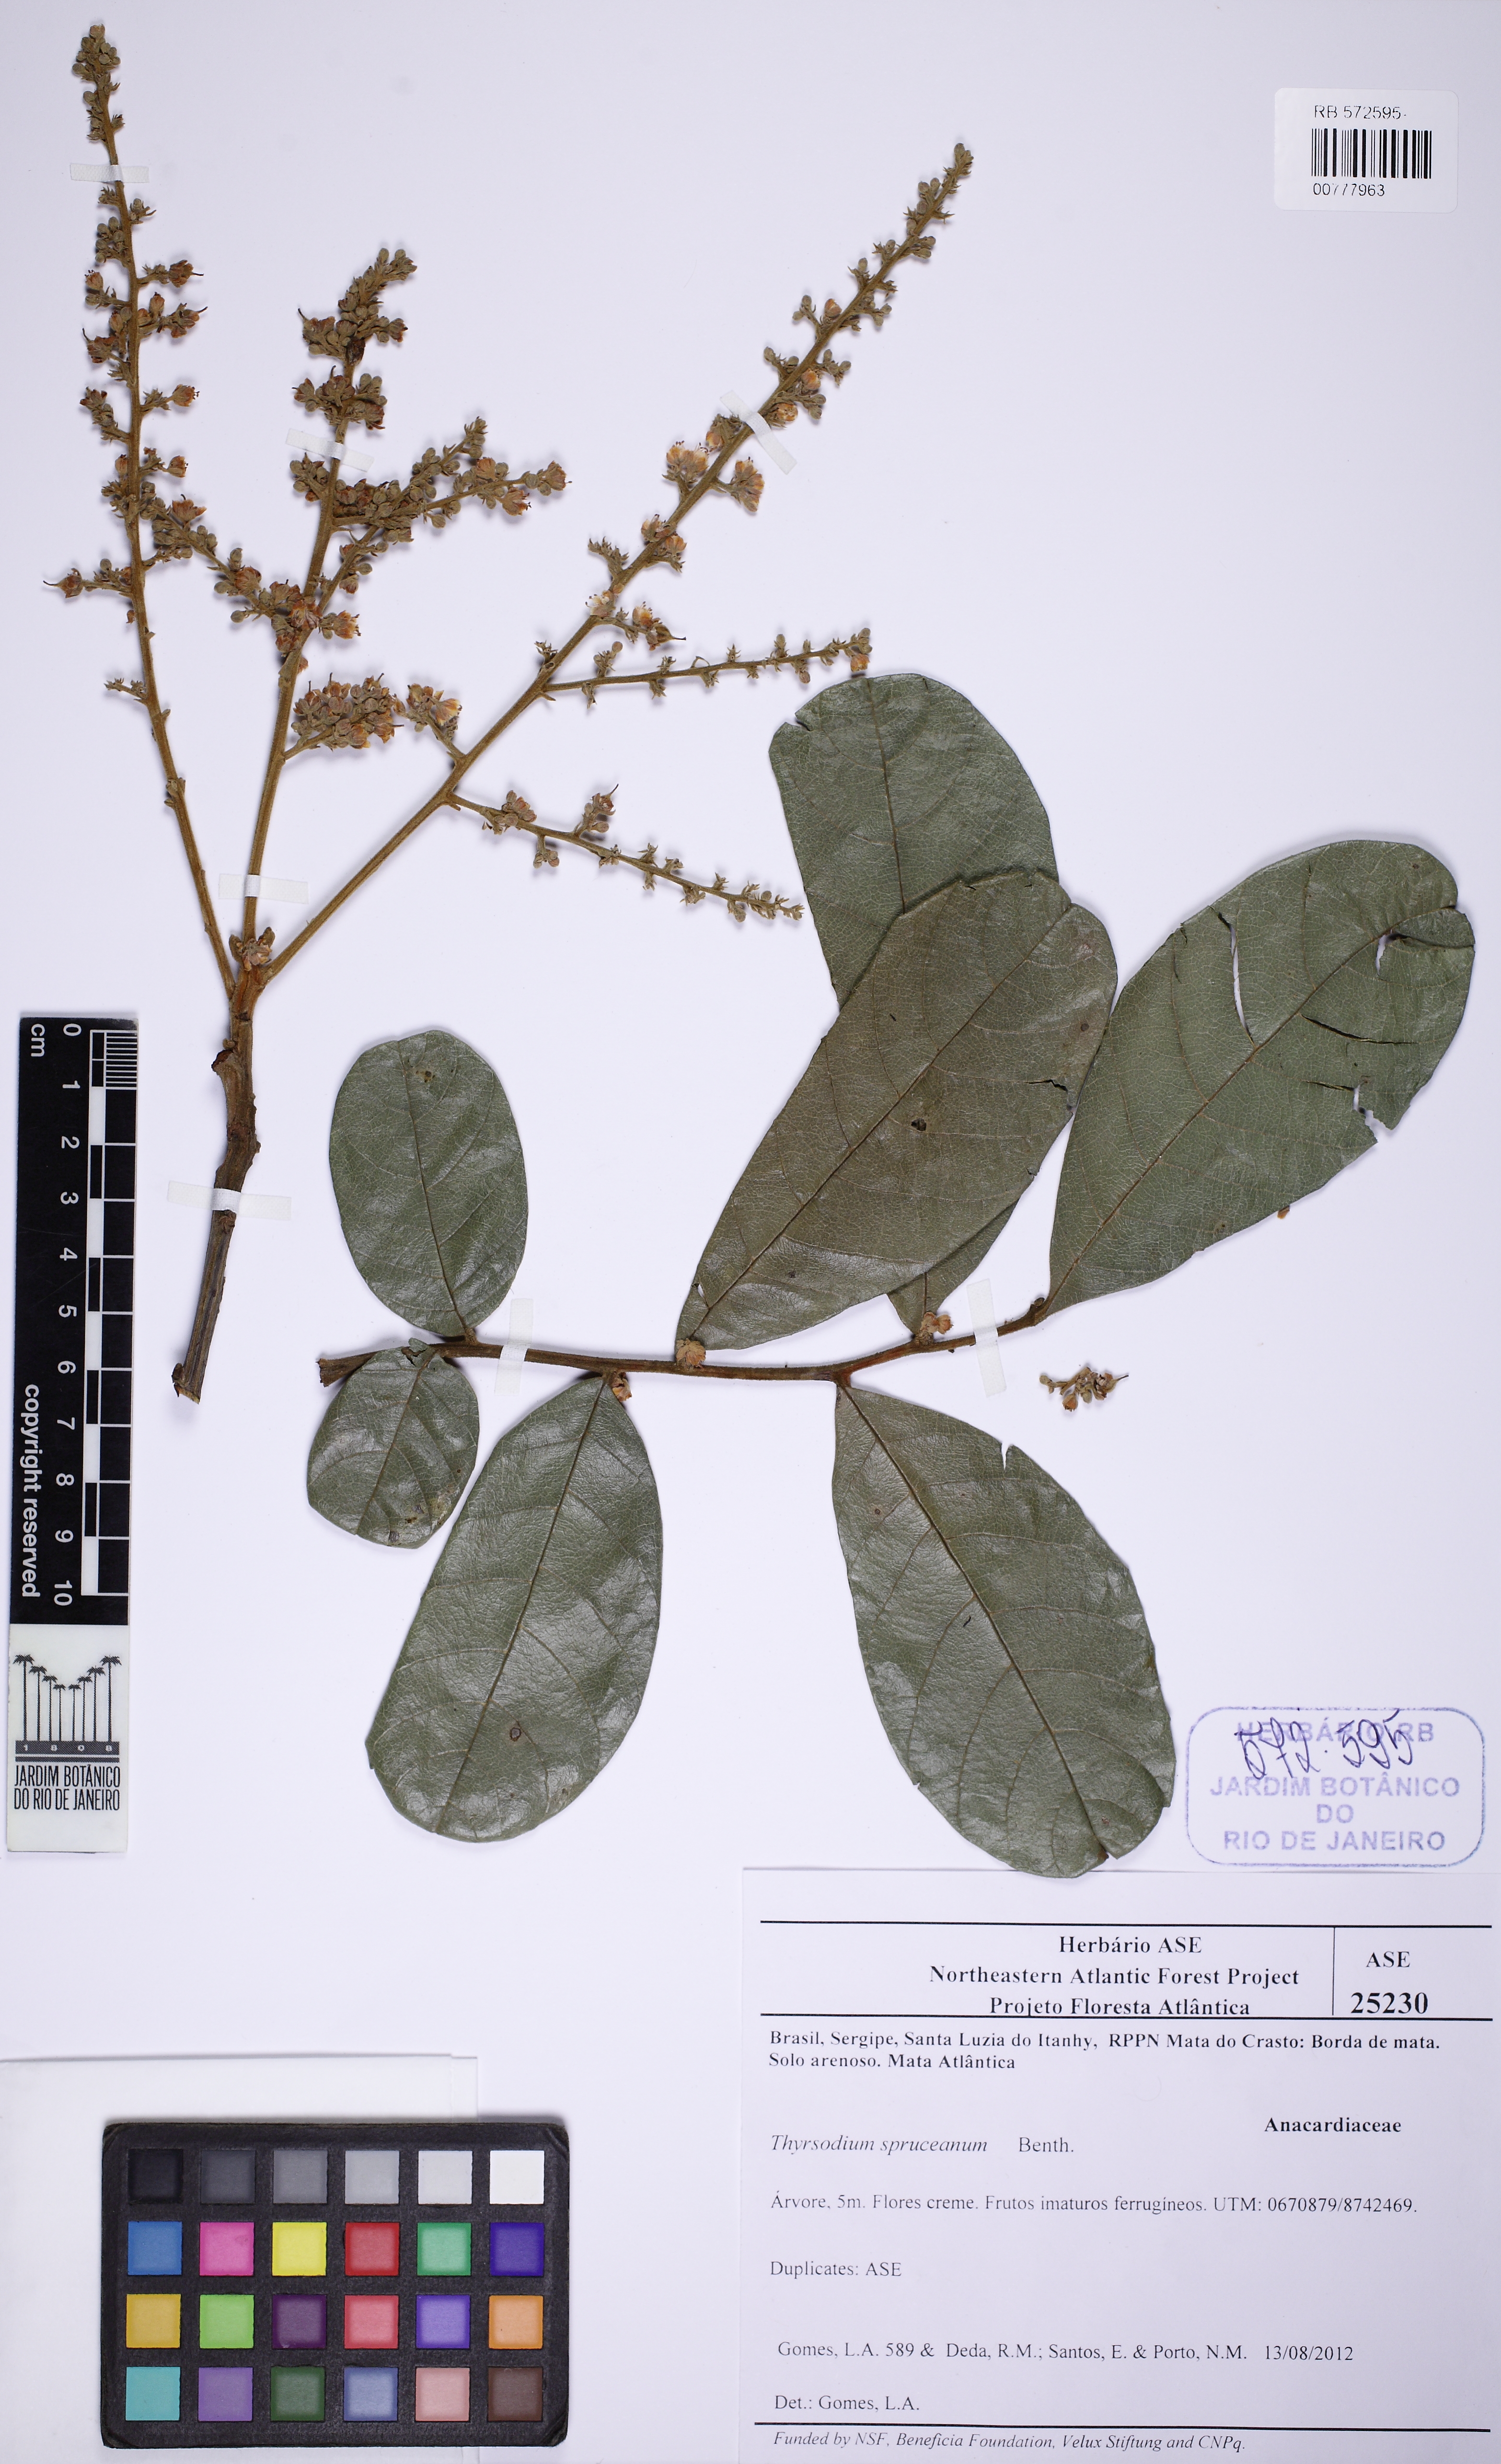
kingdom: Plantae
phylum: Tracheophyta
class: Magnoliopsida
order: Sapindales
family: Anacardiaceae
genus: Thyrsodium
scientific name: Thyrsodium spruceanum
